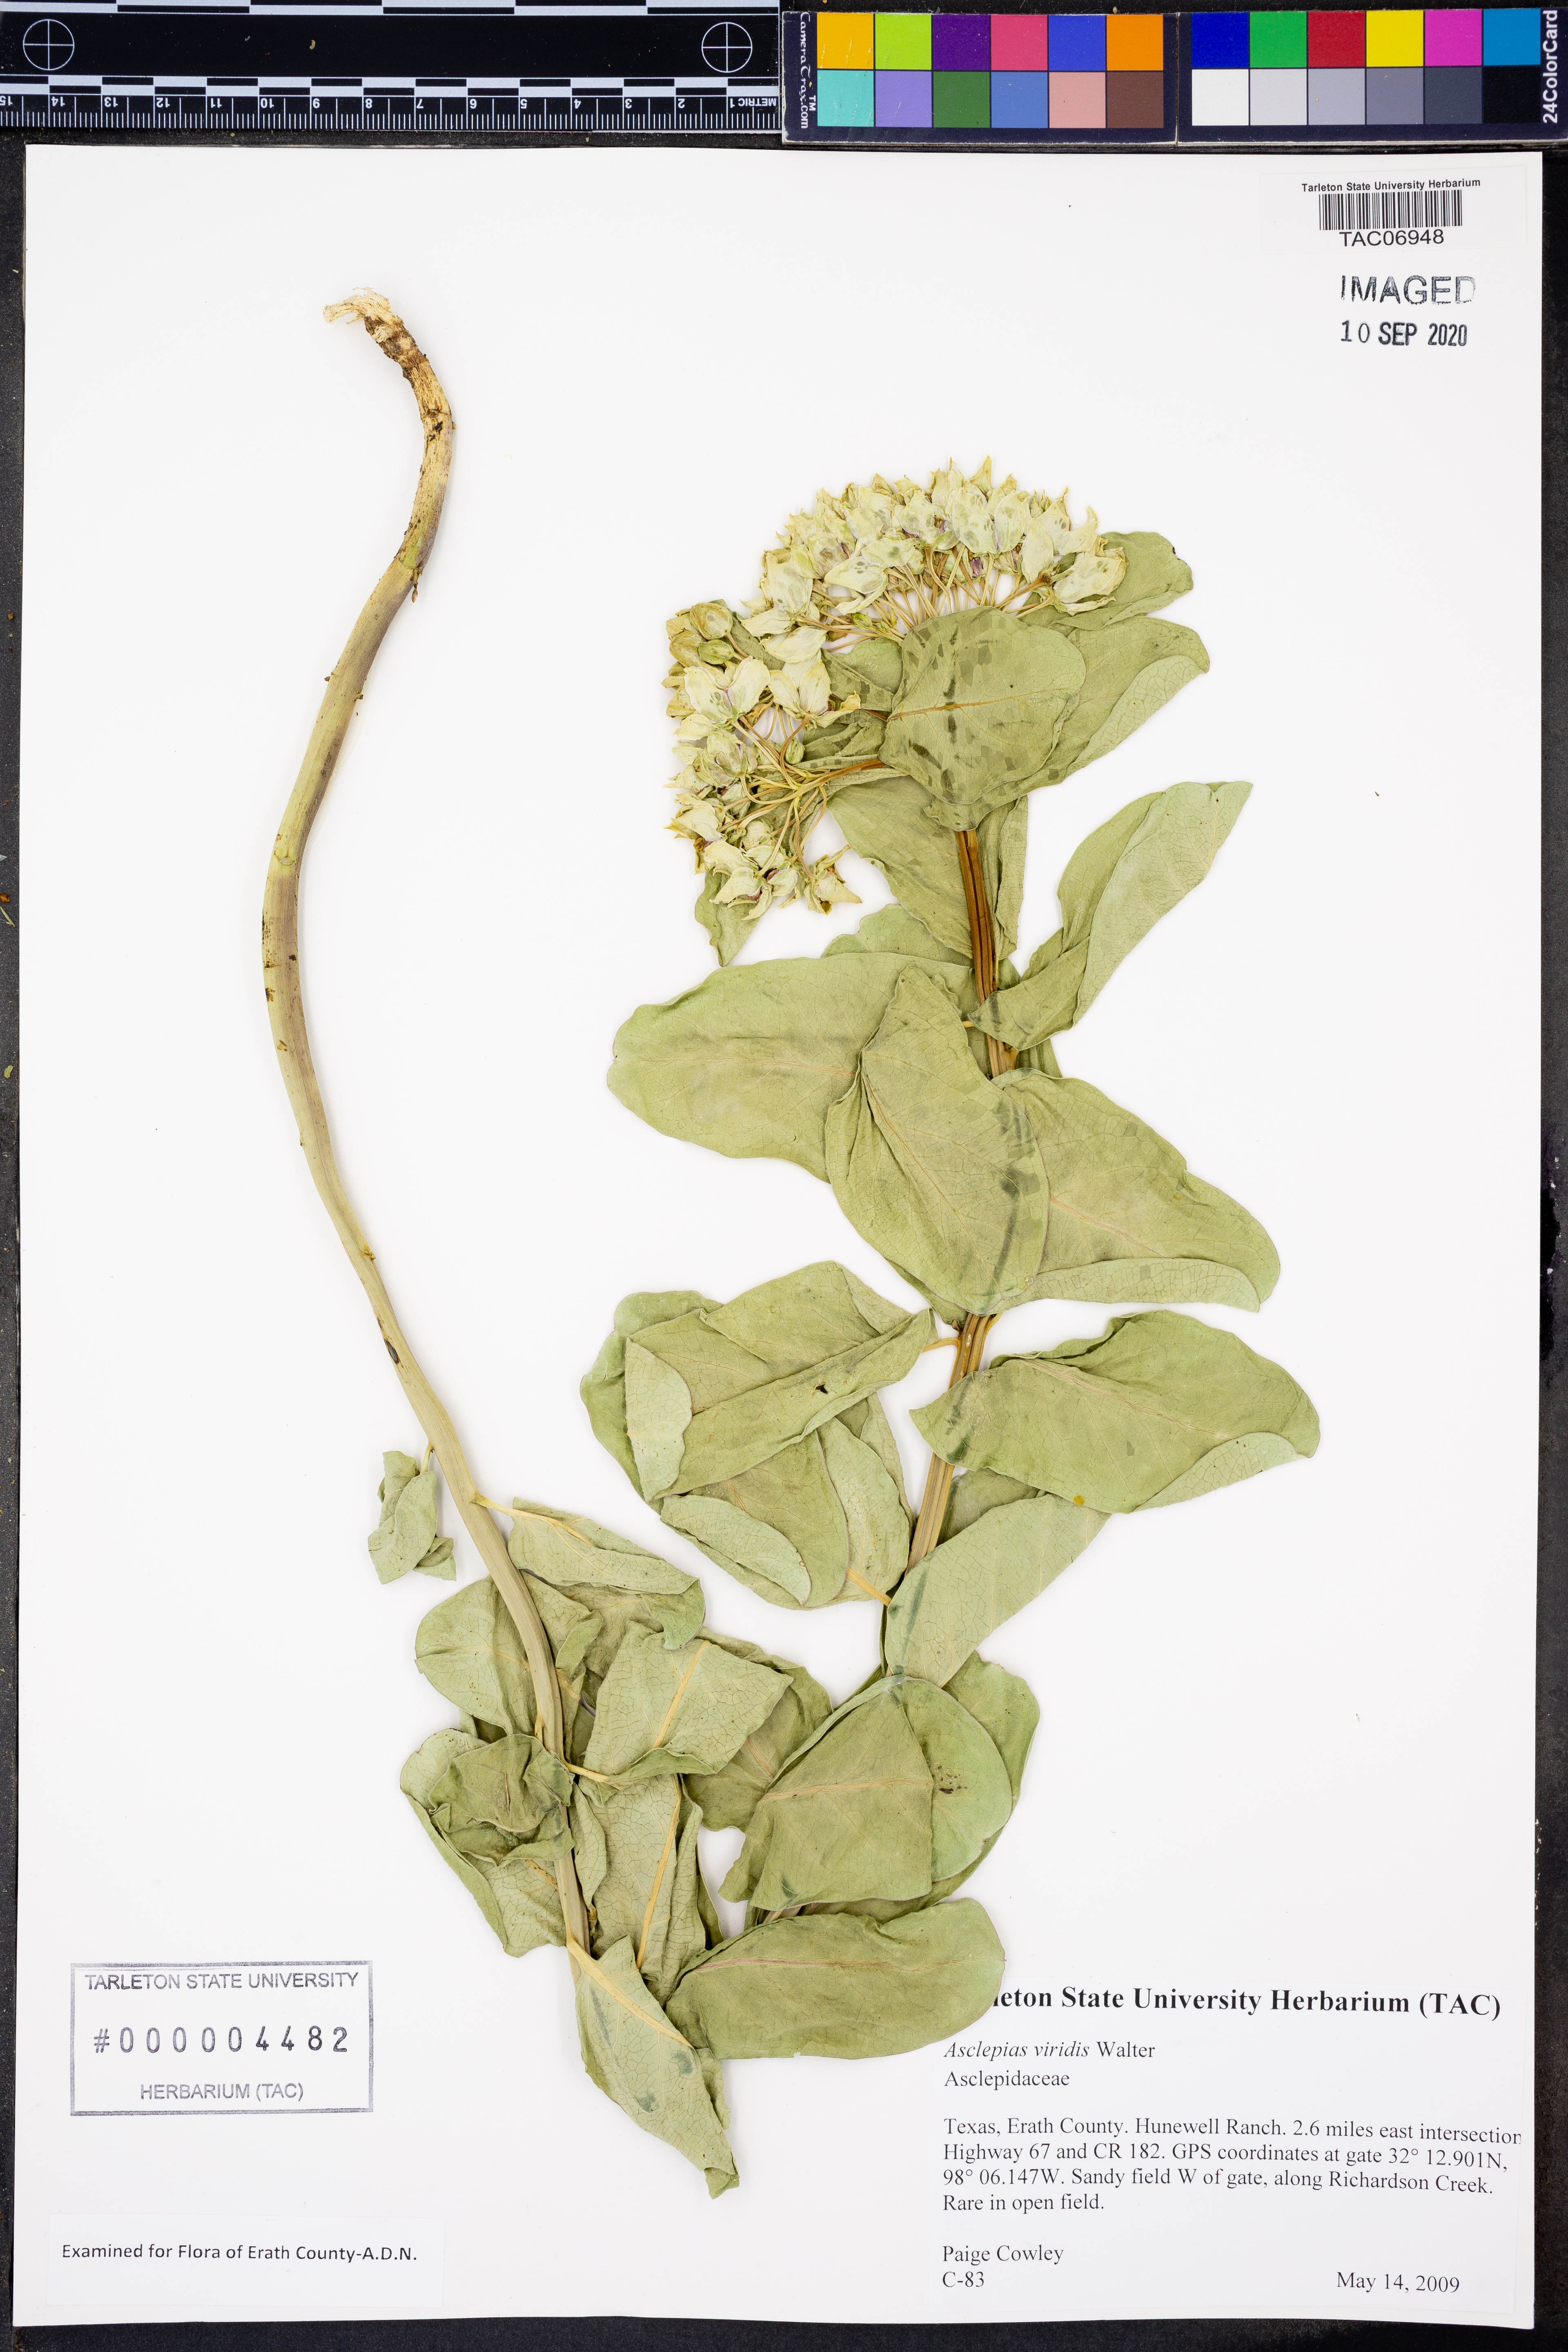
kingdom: Plantae
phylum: Tracheophyta
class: Magnoliopsida
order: Gentianales
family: Apocynaceae
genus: Asclepias
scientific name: Asclepias viridis
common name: Antelope-horns
